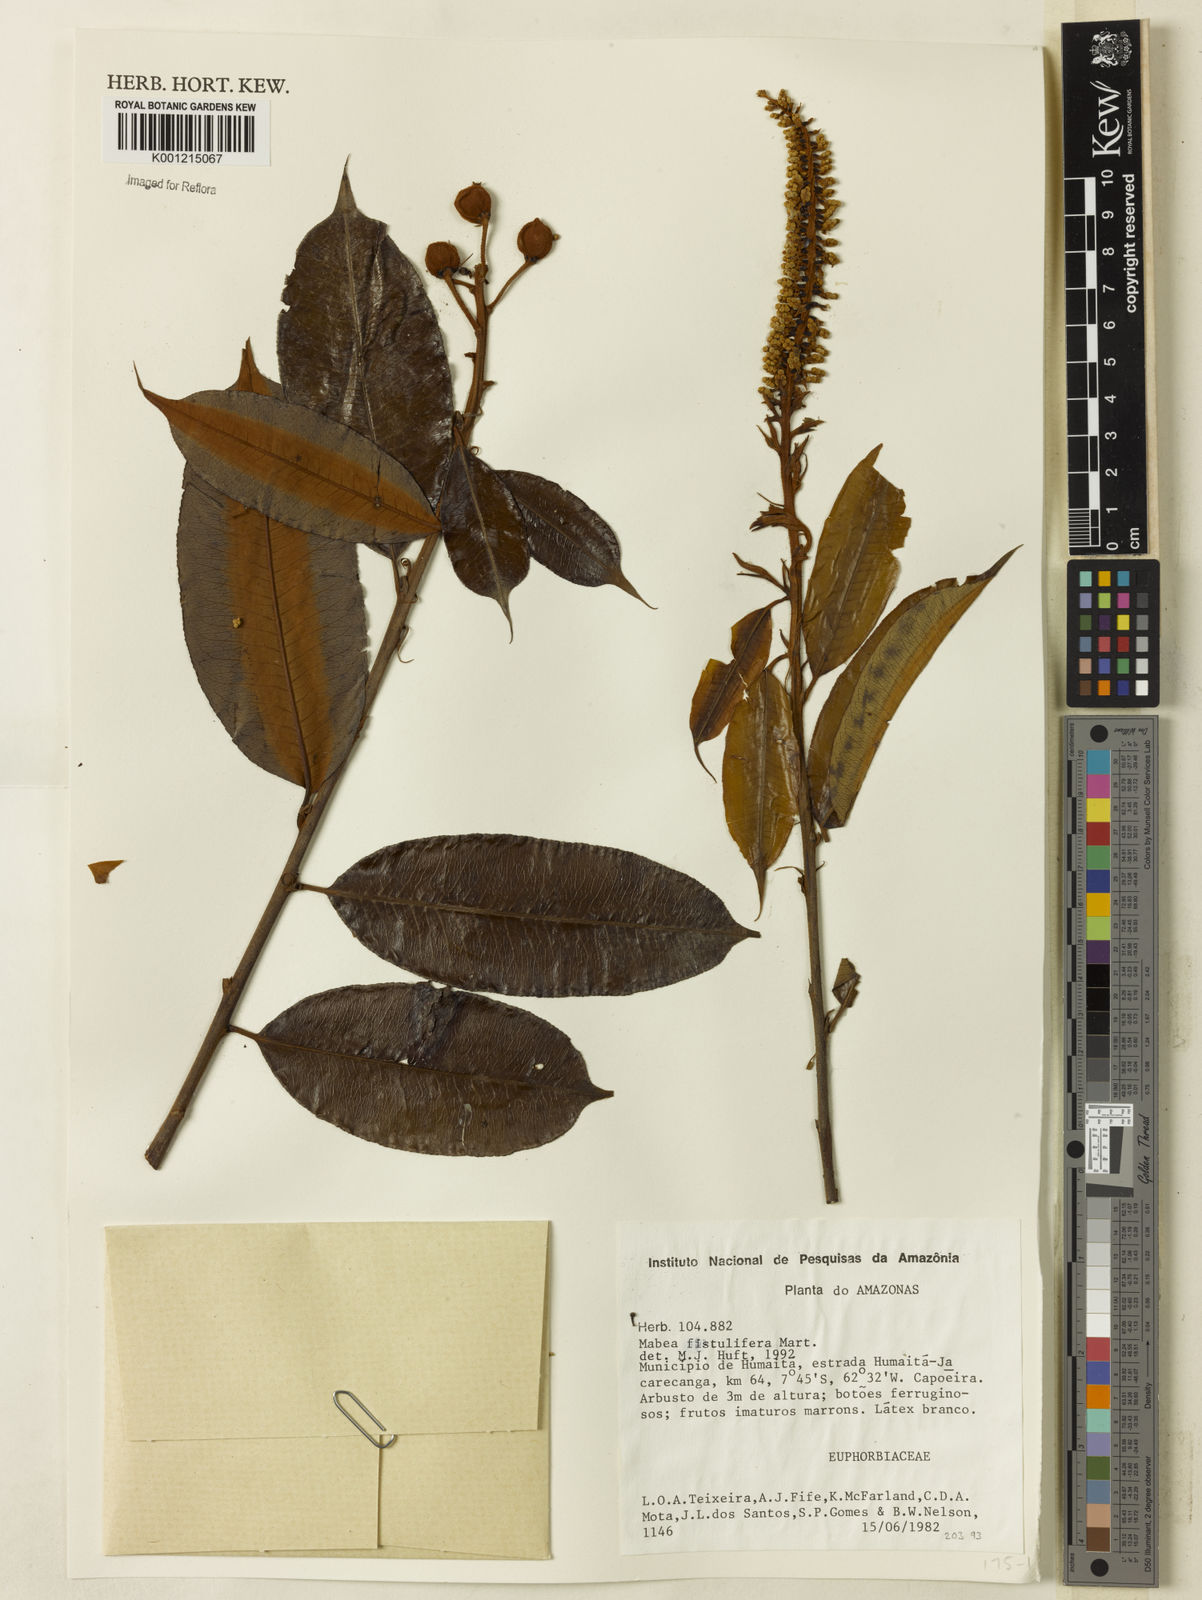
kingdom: Plantae
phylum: Tracheophyta
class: Magnoliopsida
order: Malpighiales
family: Euphorbiaceae
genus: Mabea
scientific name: Mabea fistulifera
